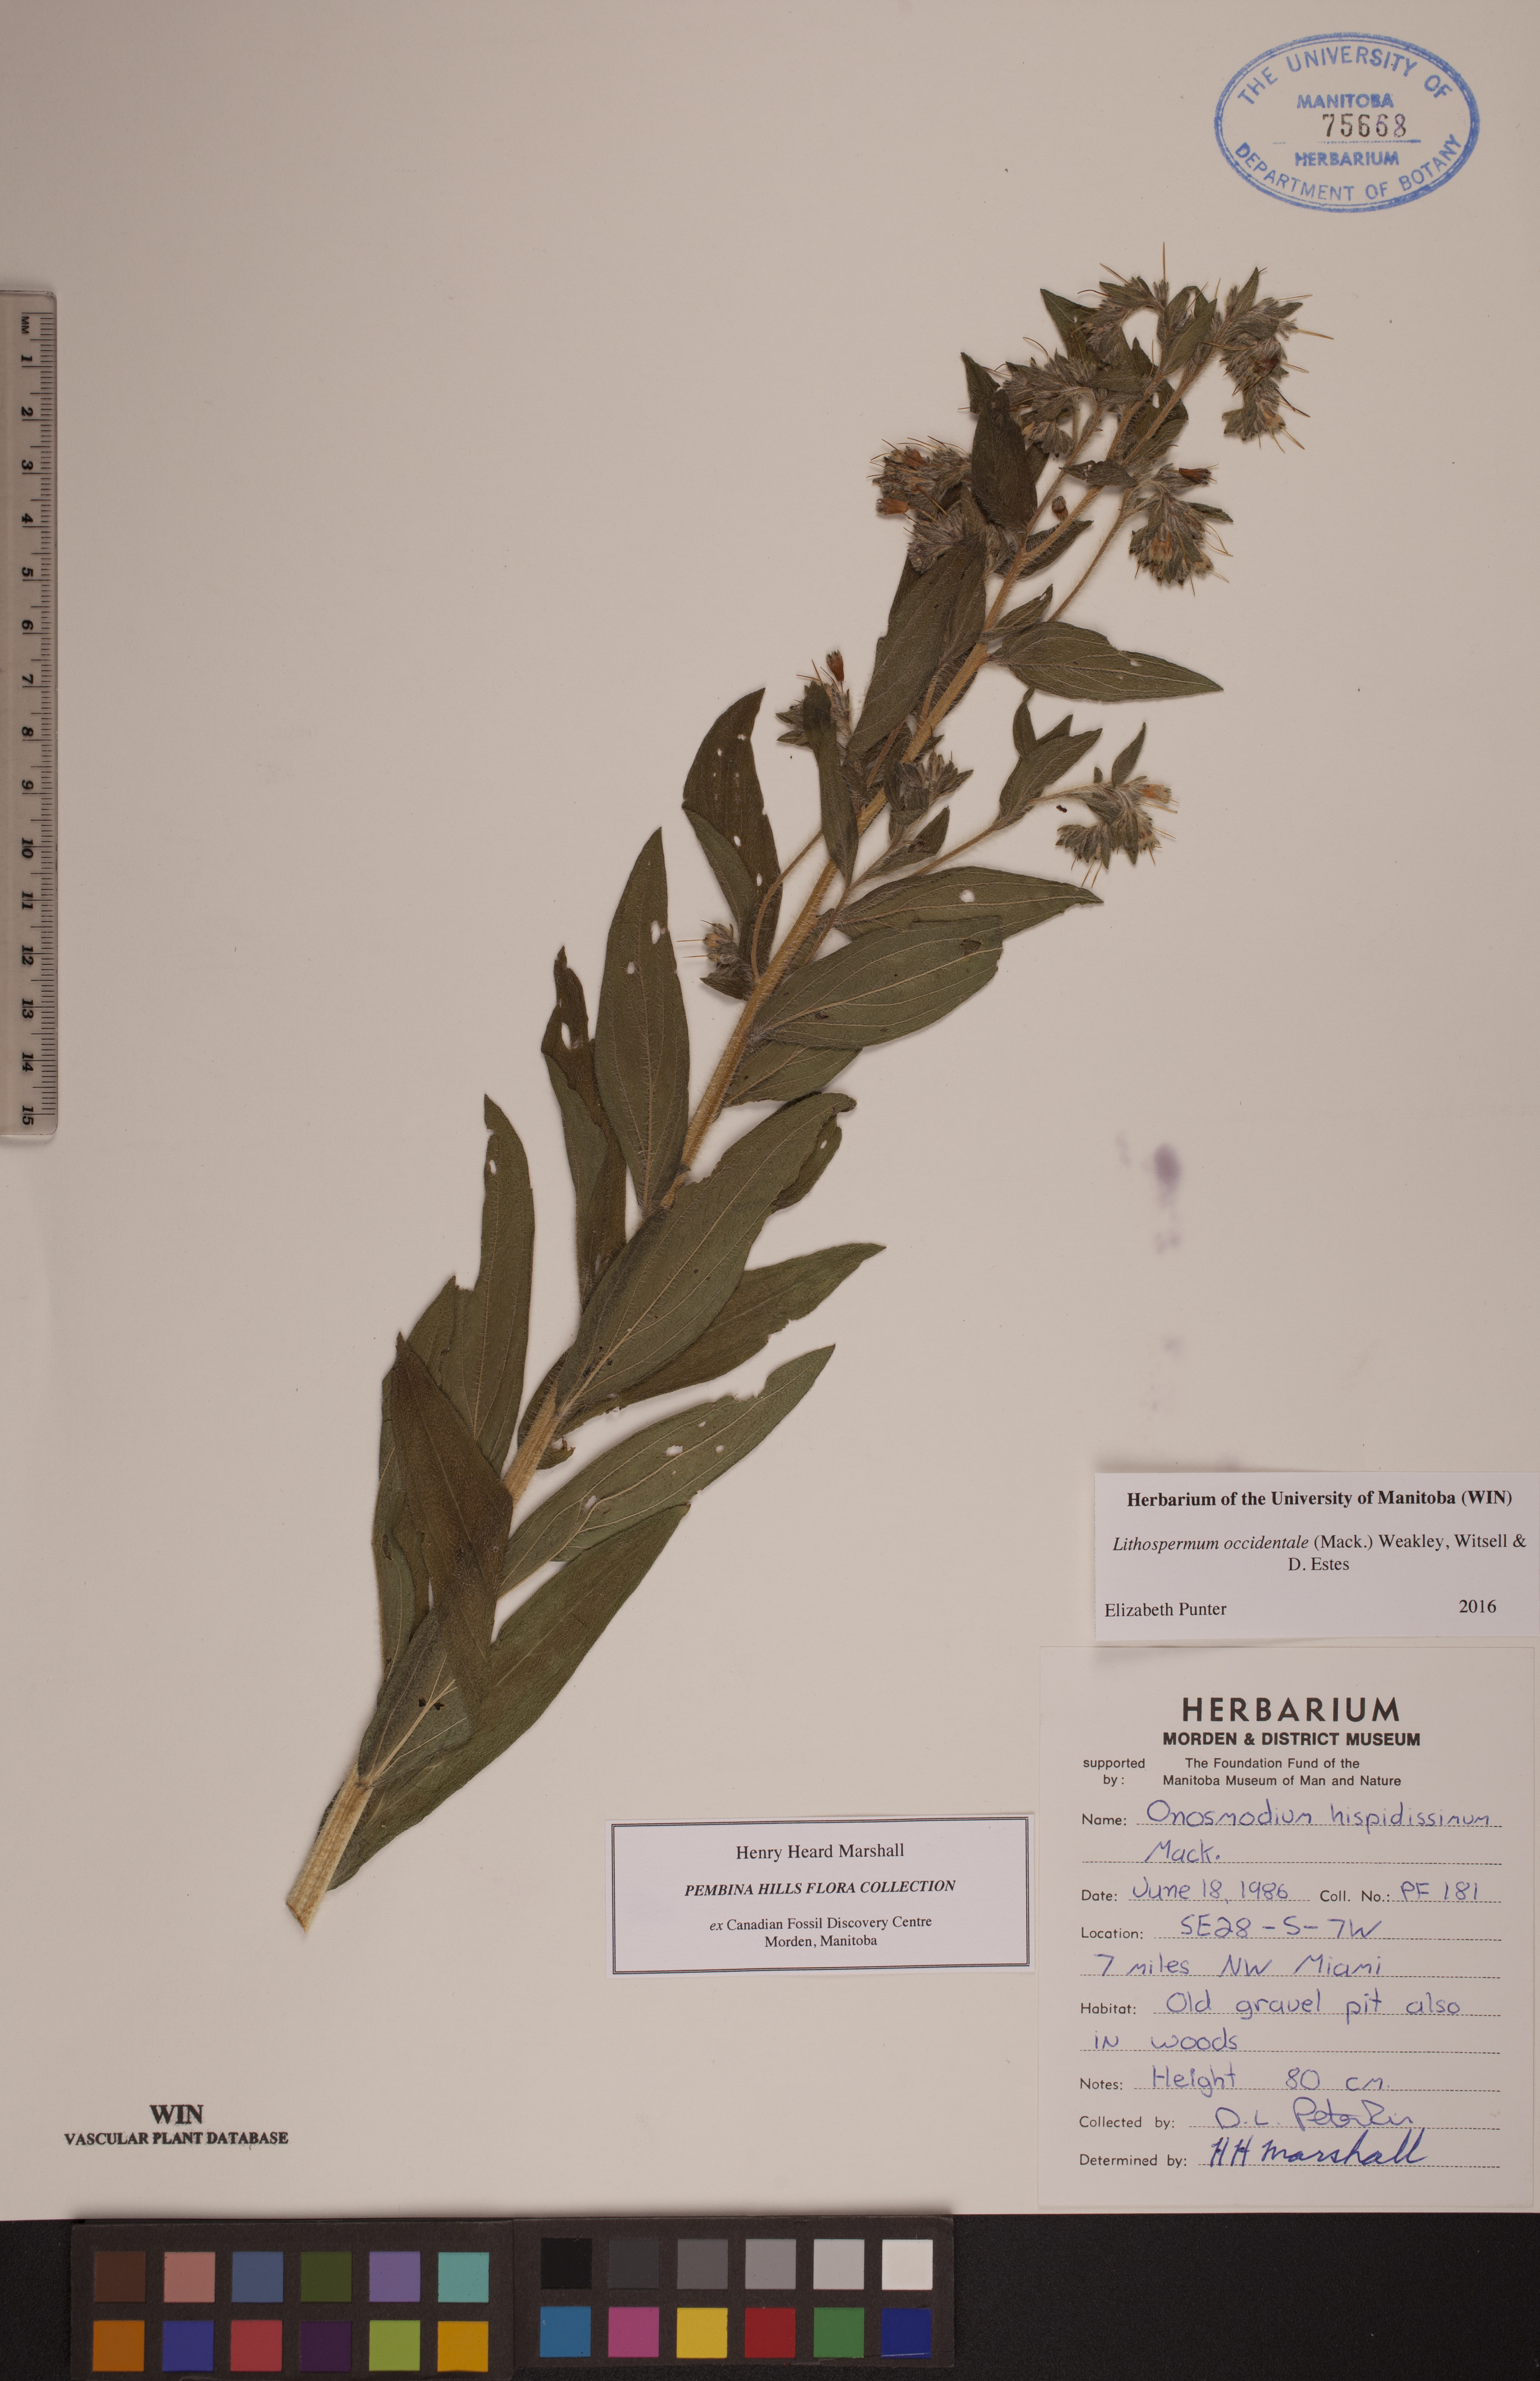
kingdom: Plantae
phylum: Tracheophyta
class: Magnoliopsida
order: Boraginales
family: Boraginaceae
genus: Lithospermum
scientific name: Lithospermum occidentale
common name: Western false gromwell
